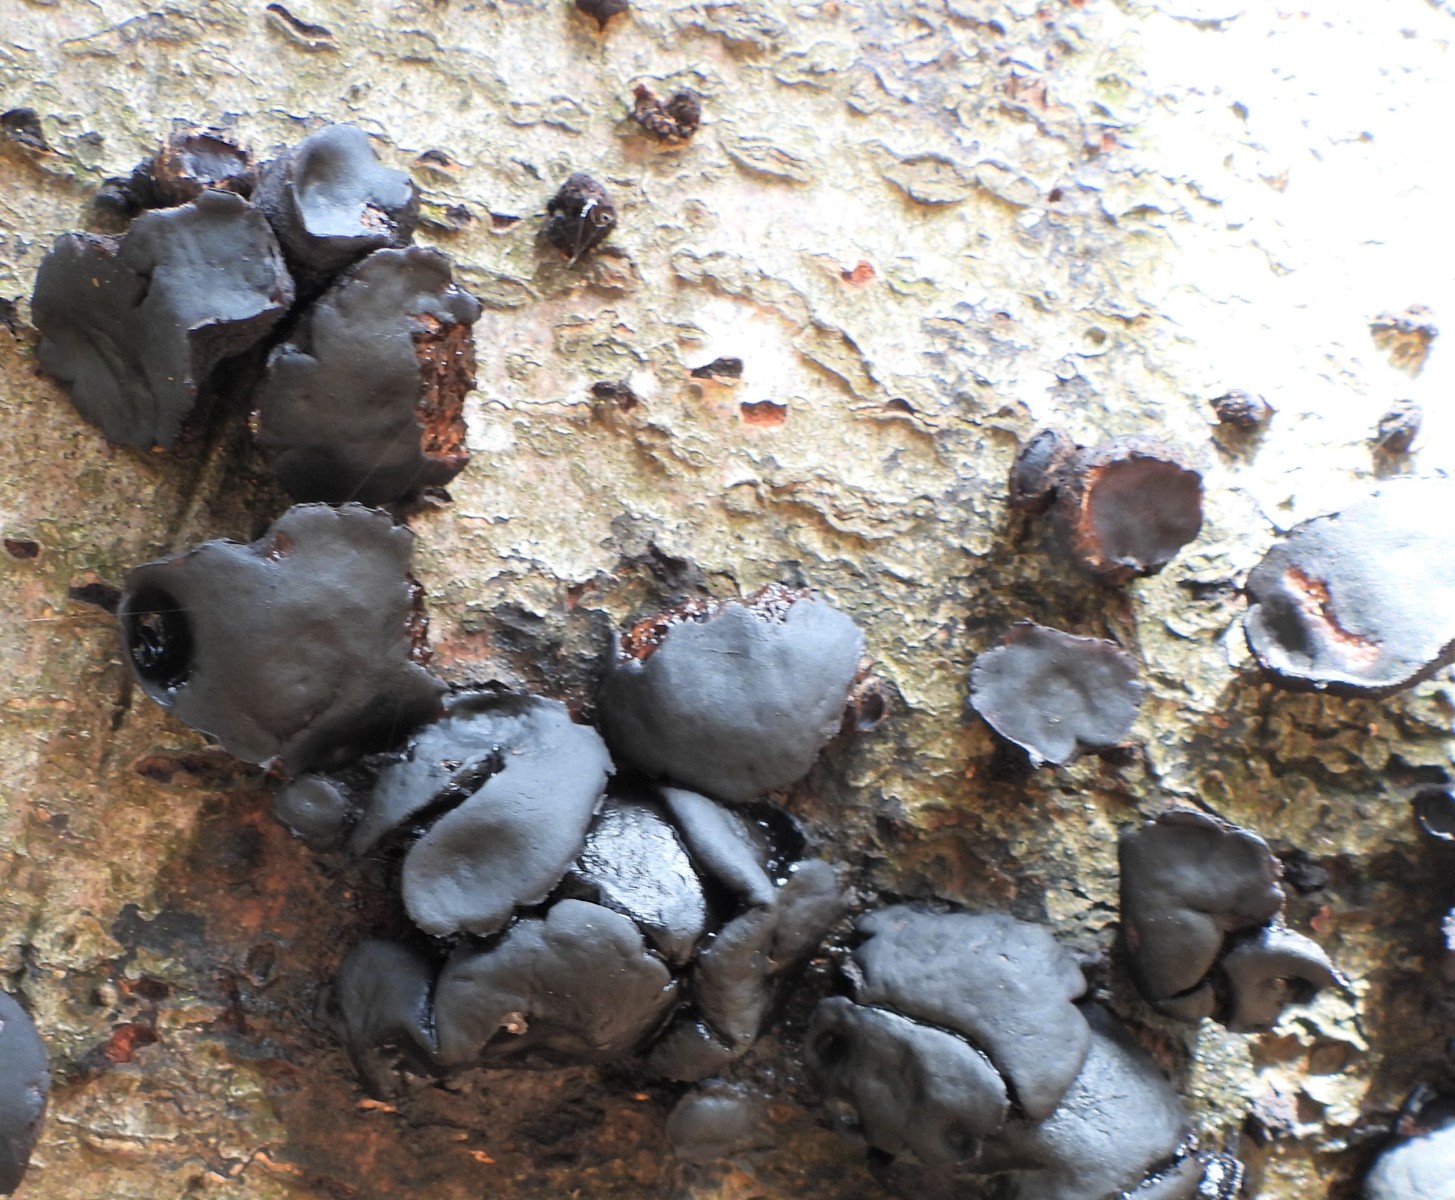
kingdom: Fungi
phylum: Ascomycota
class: Leotiomycetes
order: Phacidiales
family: Phacidiaceae
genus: Bulgaria
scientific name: Bulgaria inquinans
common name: afsmittende topsvamp
